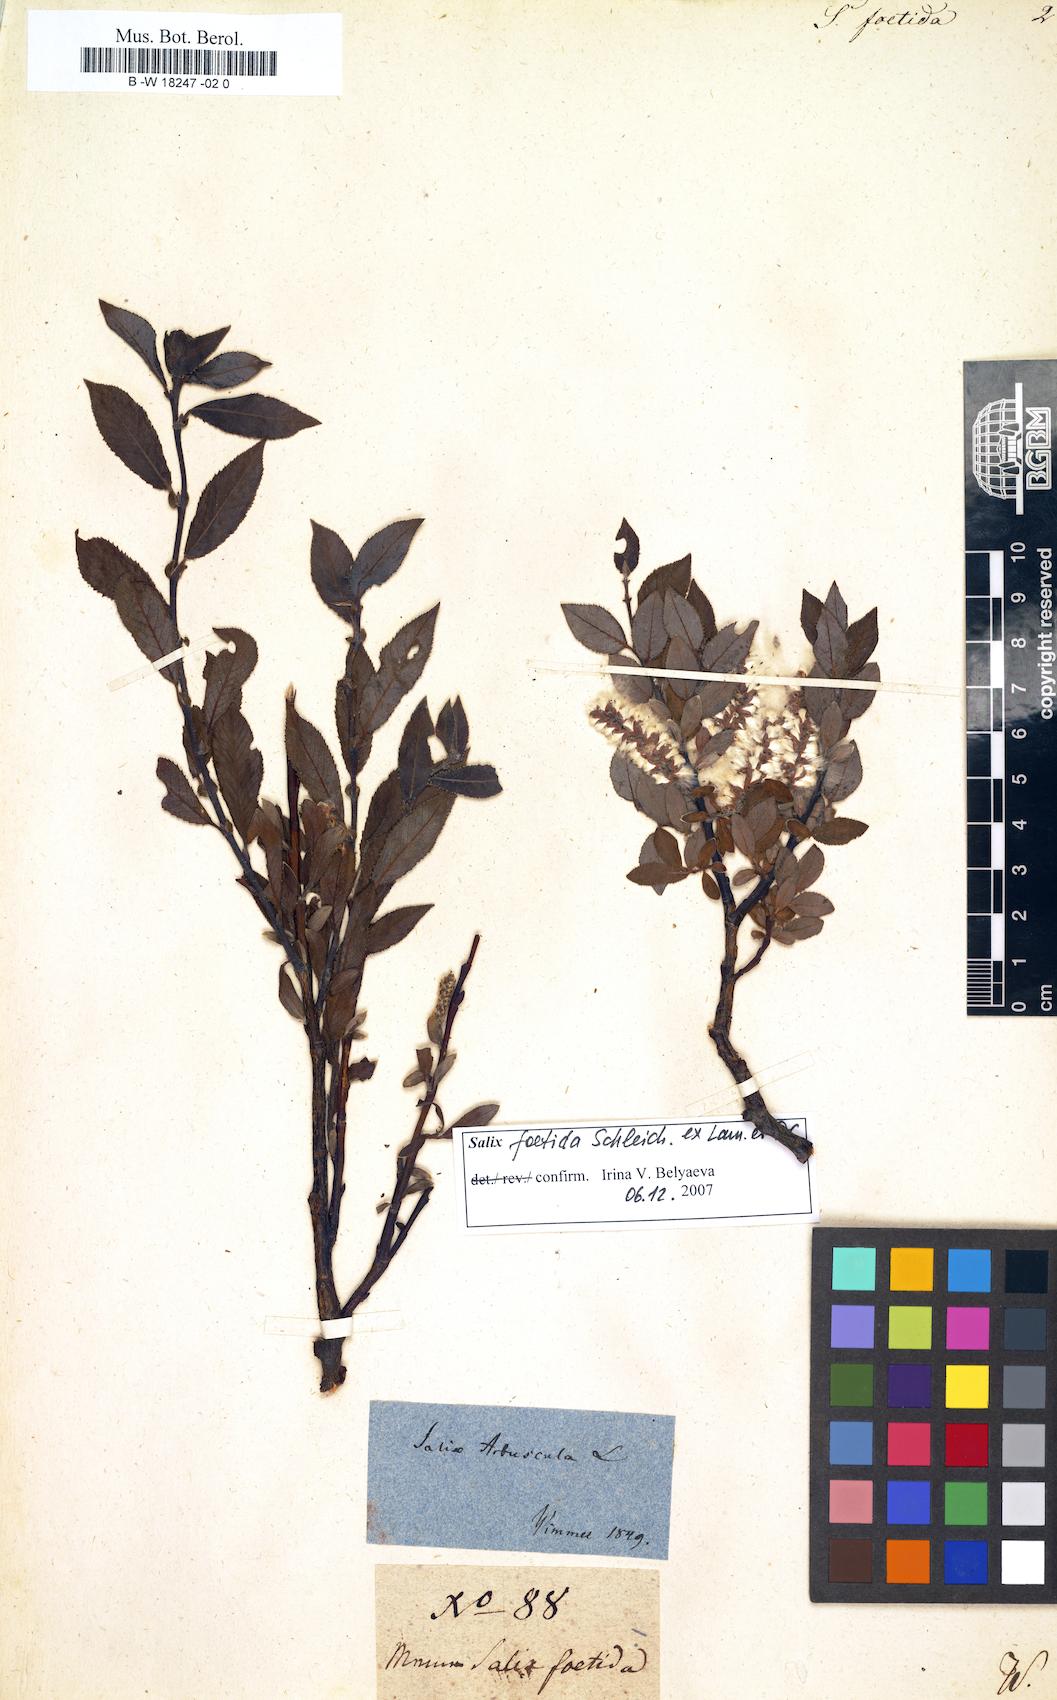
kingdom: Plantae
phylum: Tracheophyta
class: Magnoliopsida
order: Malpighiales
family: Salicaceae
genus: Salix
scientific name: Salix foetida
